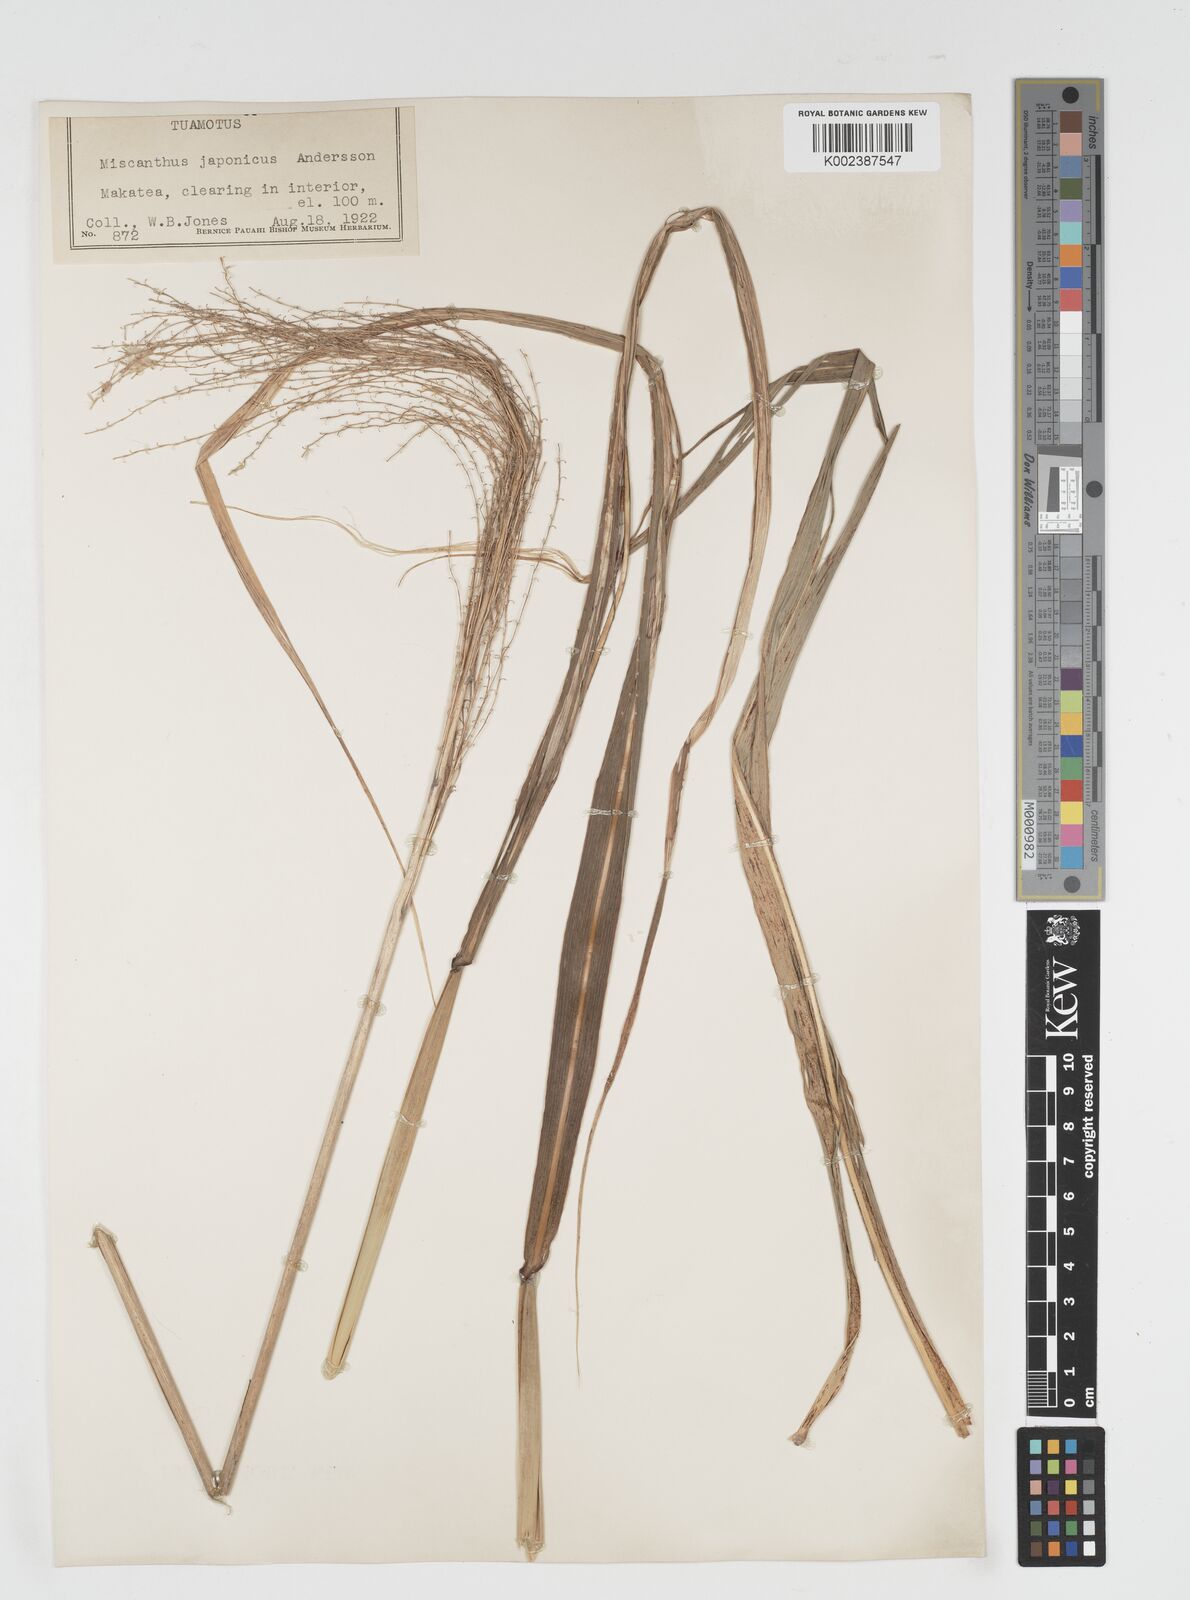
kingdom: Plantae
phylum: Tracheophyta
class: Liliopsida
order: Poales
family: Poaceae
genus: Miscanthus
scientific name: Miscanthus floridulus
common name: Pacific island silvergrass
